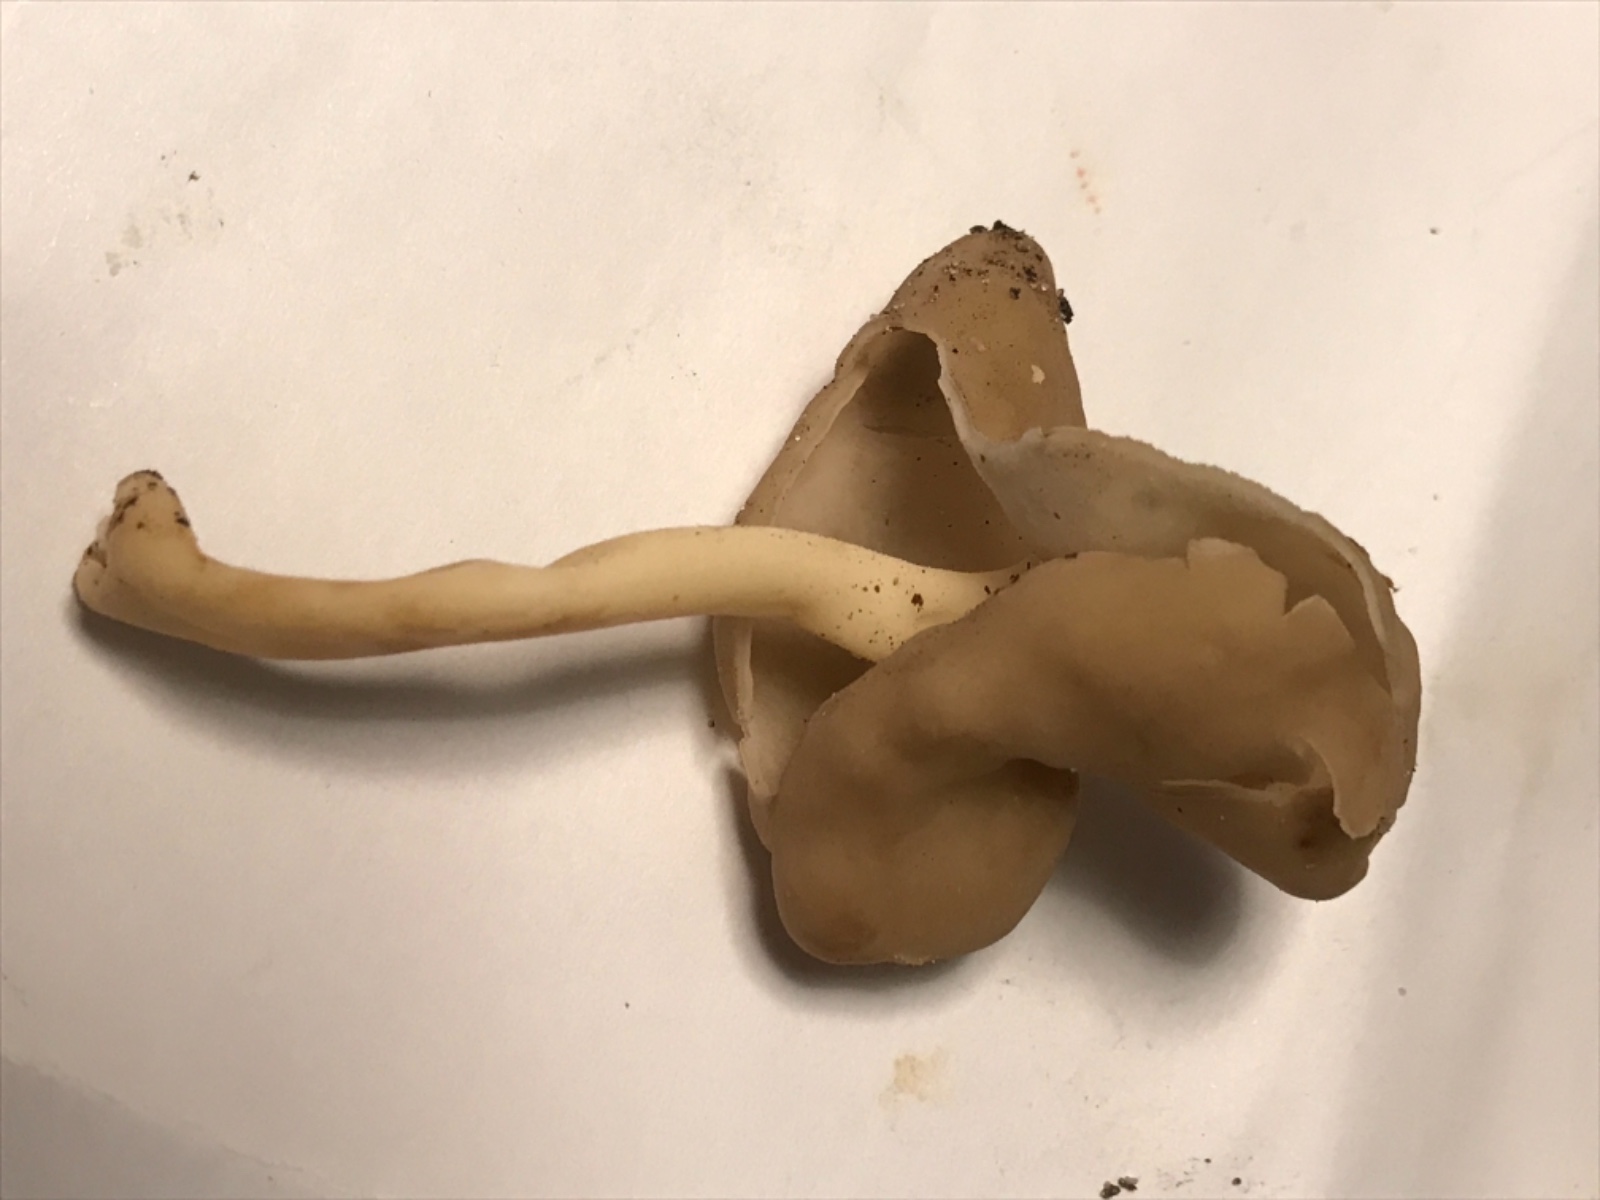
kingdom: Fungi
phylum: Ascomycota
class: Pezizomycetes
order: Pezizales
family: Helvellaceae
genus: Helvella
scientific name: Helvella elastica
